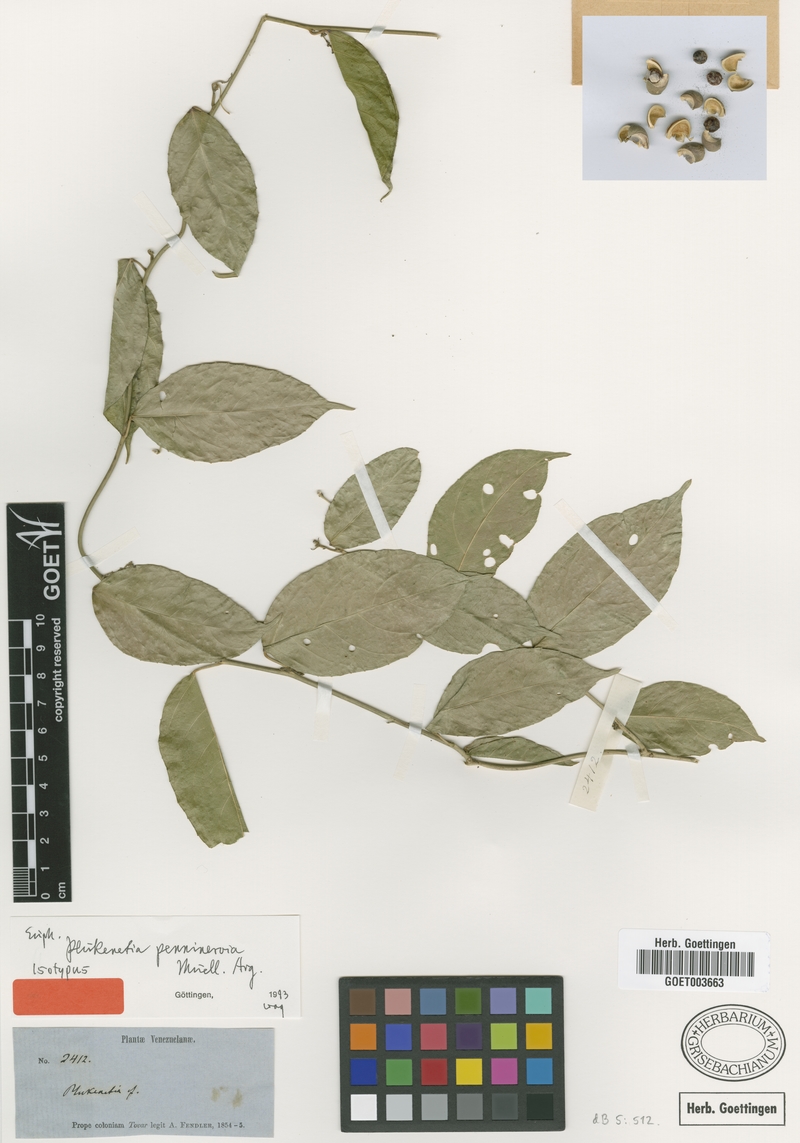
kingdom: Plantae
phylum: Tracheophyta
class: Magnoliopsida
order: Malpighiales
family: Euphorbiaceae
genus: Plukenetia
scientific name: Plukenetia penninervia
